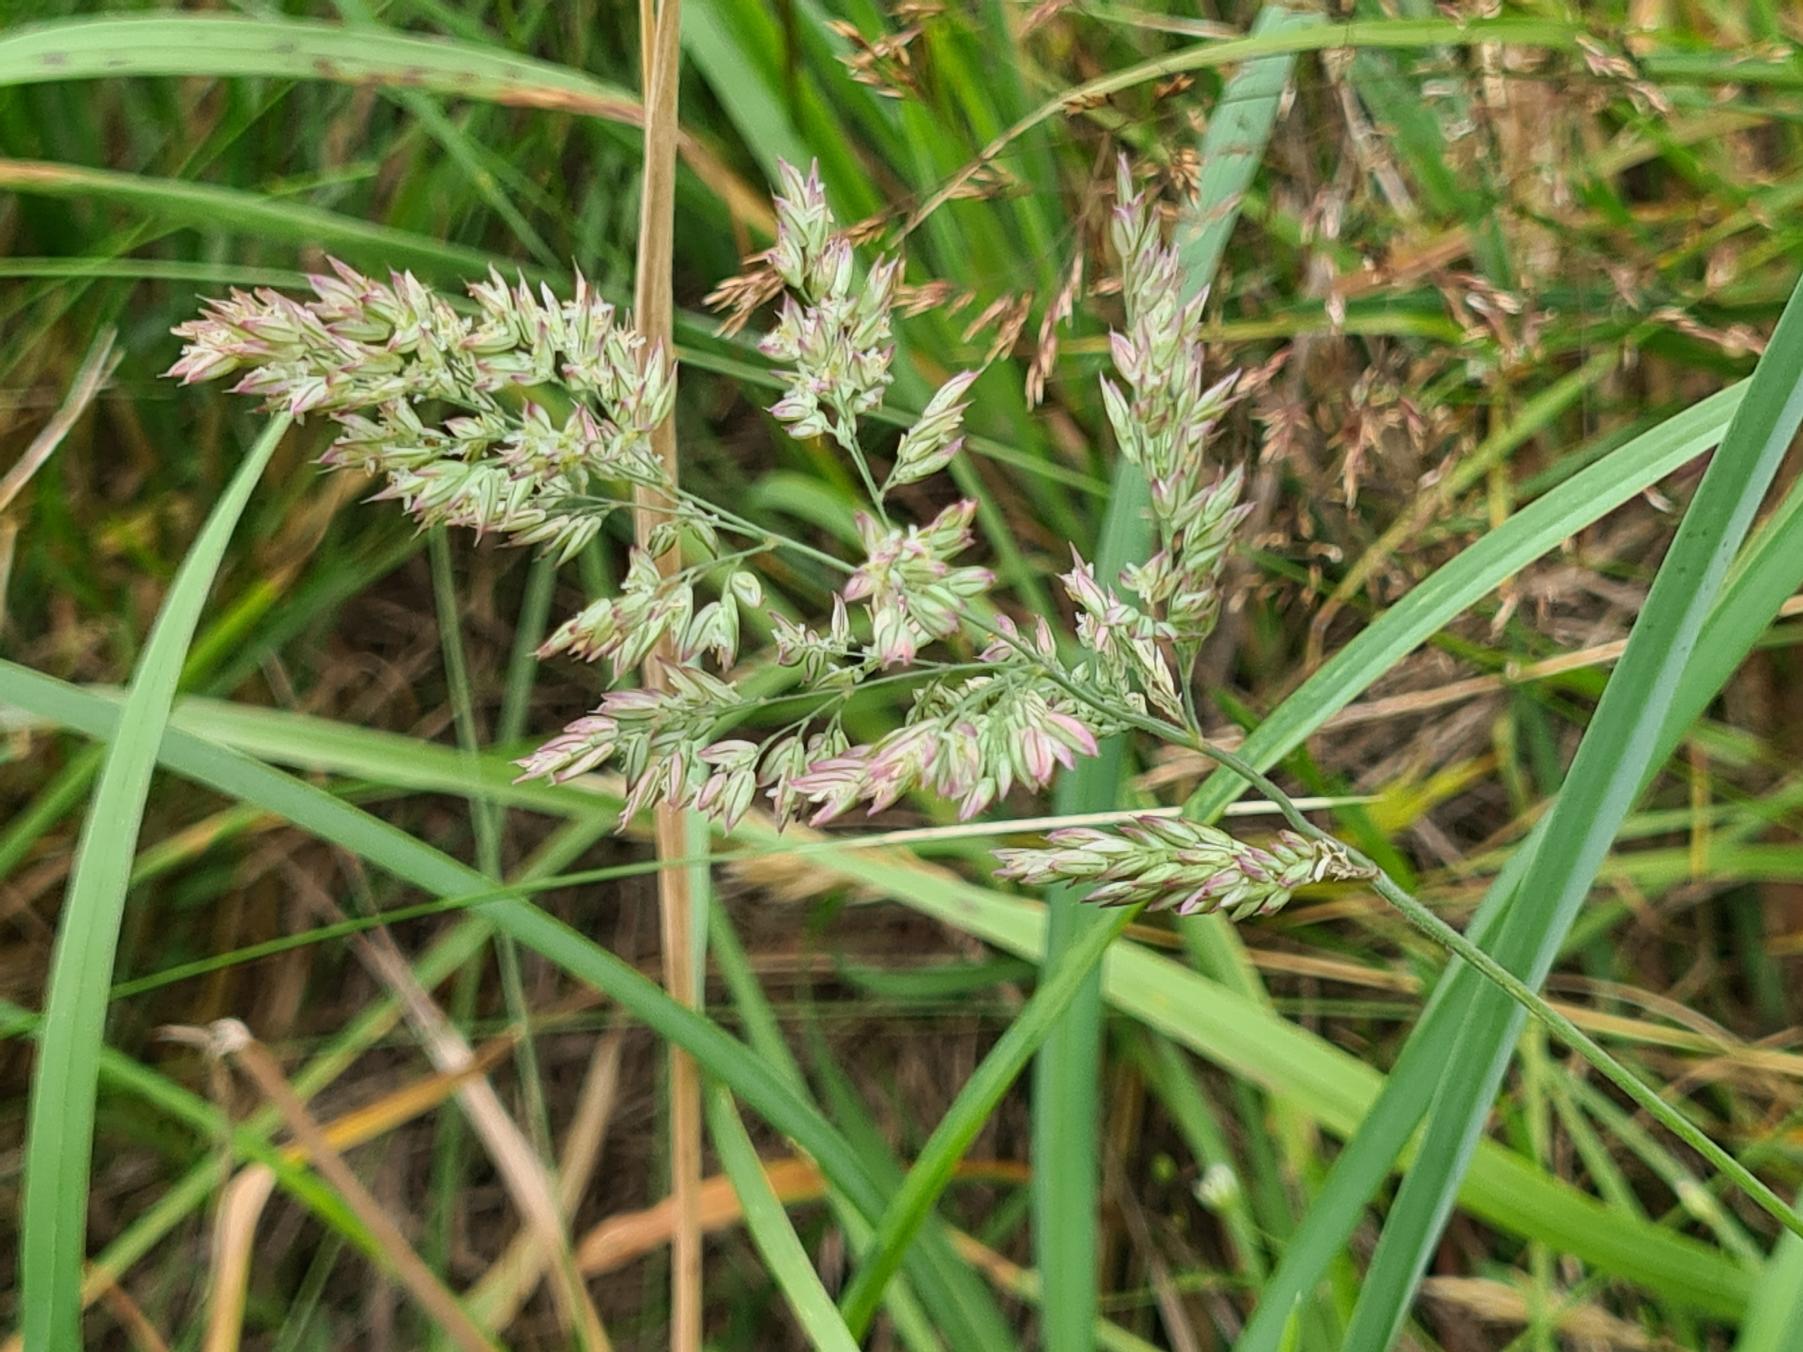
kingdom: Plantae
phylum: Tracheophyta
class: Liliopsida
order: Poales
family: Poaceae
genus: Holcus
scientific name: Holcus lanatus
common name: Fløjlsgræs
